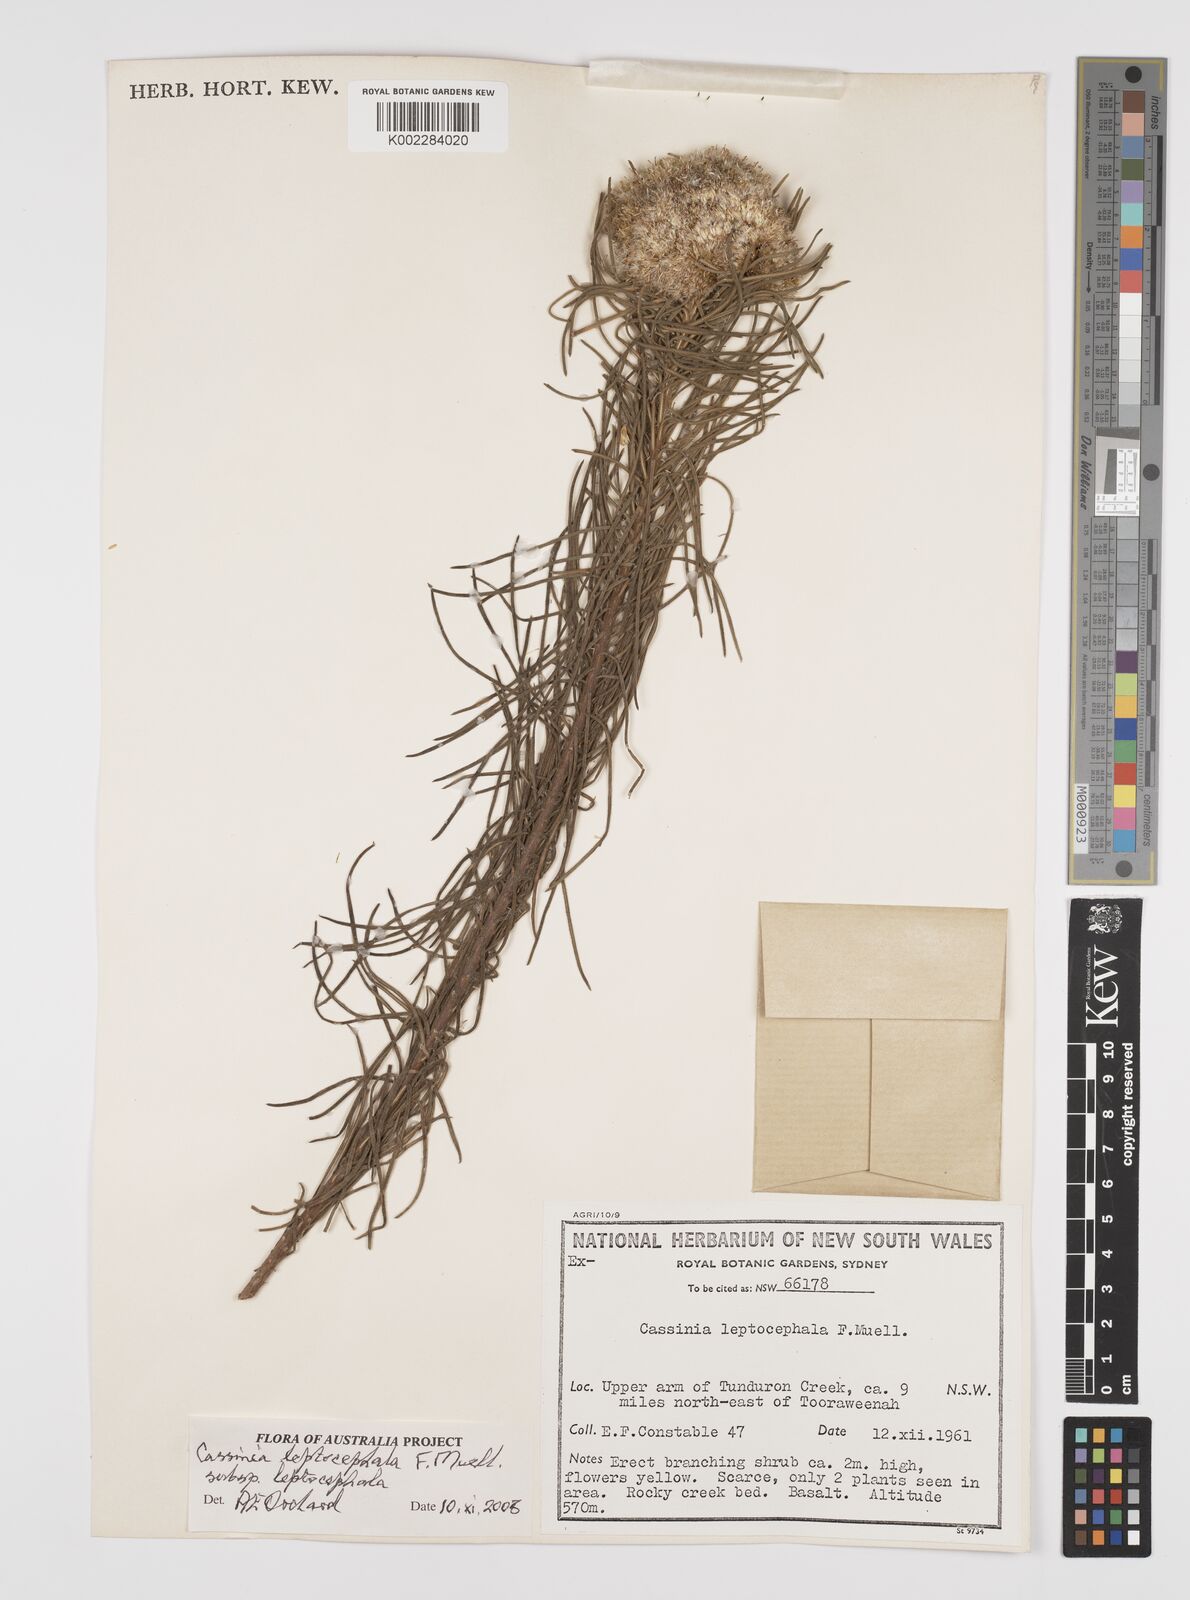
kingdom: Plantae
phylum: Tracheophyta
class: Magnoliopsida
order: Asterales
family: Asteraceae
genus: Cassinia
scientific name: Cassinia leptocephala
